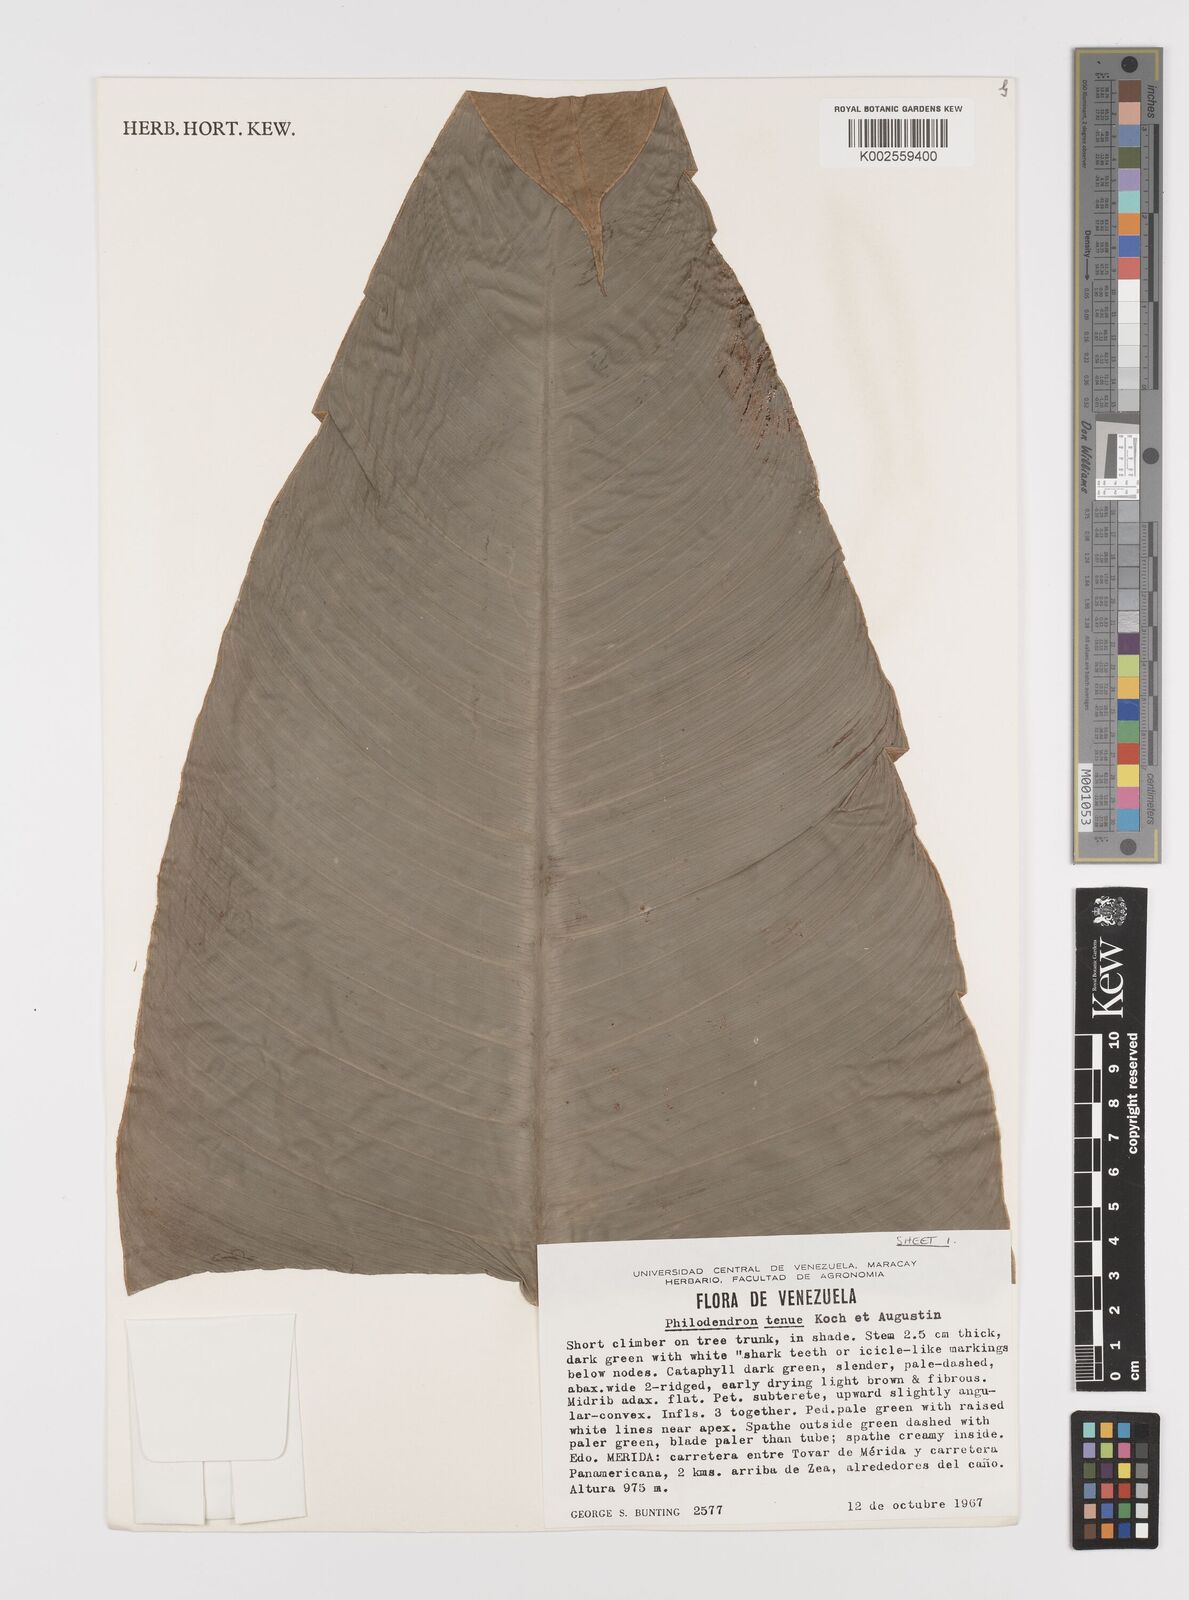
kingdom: Plantae
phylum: Tracheophyta
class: Liliopsida
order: Alismatales
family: Araceae
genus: Philodendron
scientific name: Philodendron tenue
